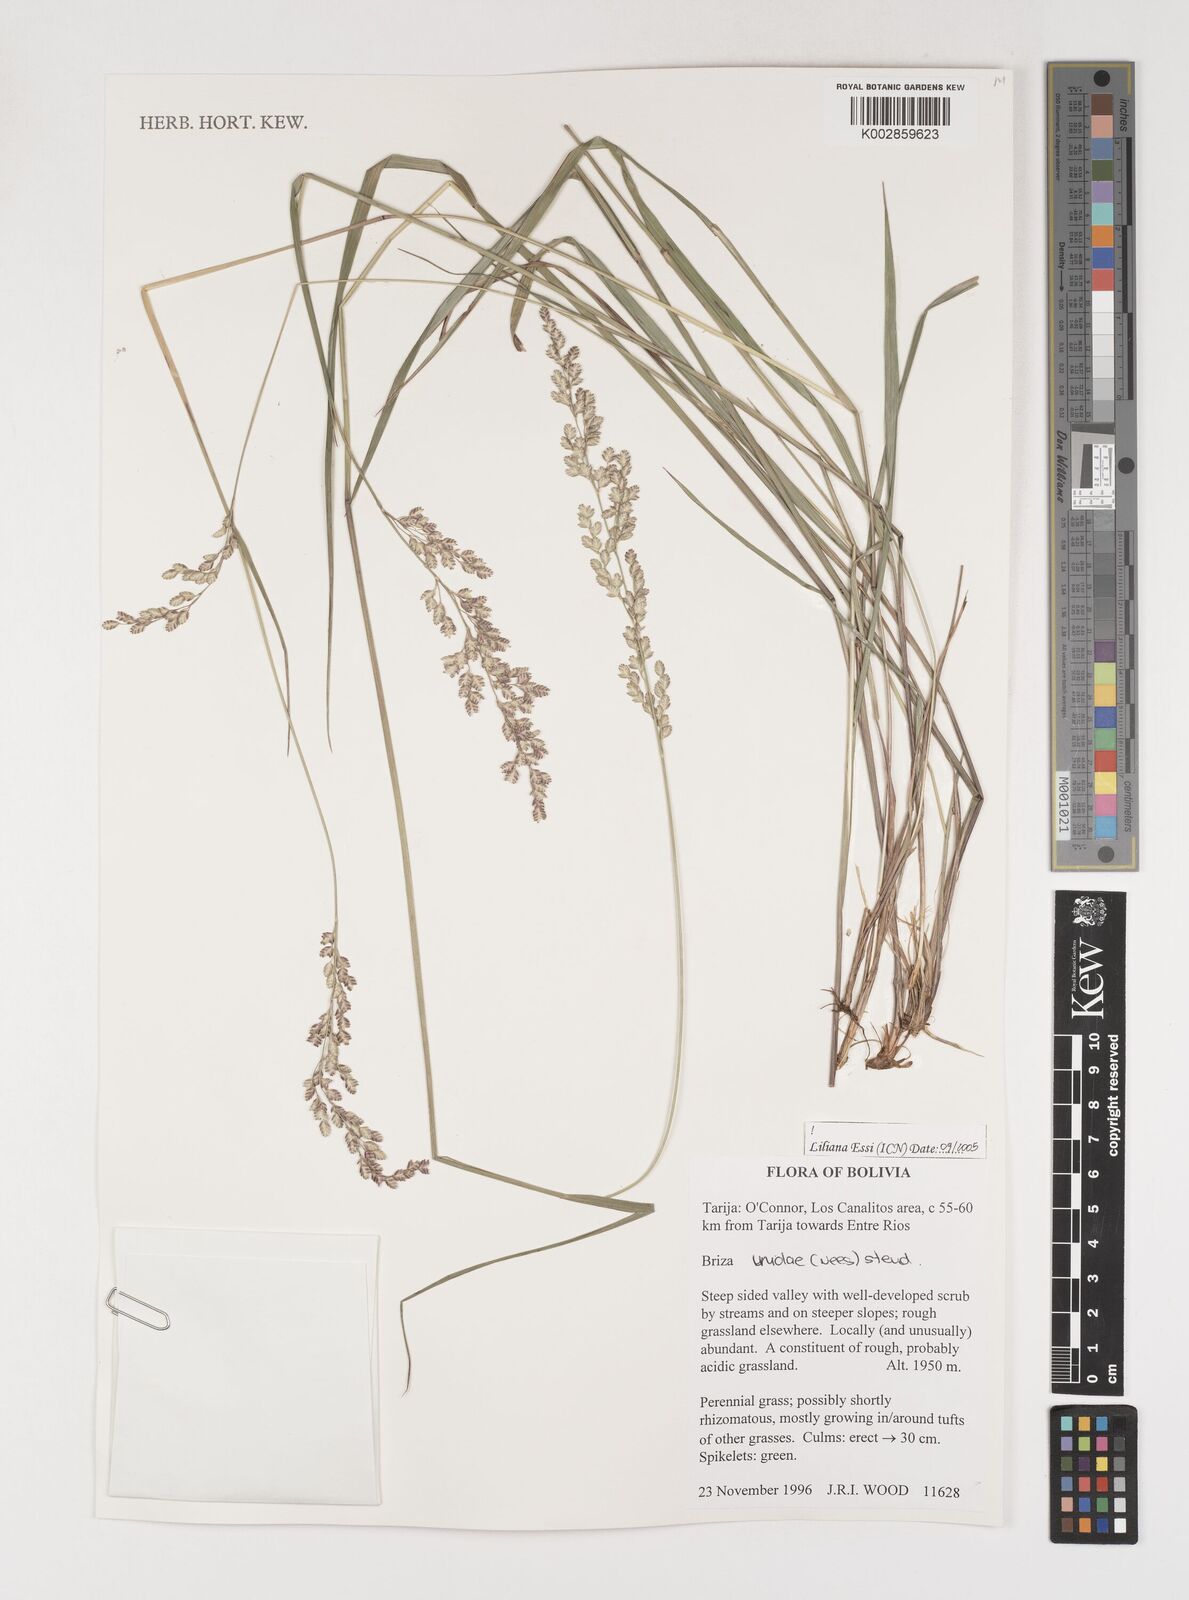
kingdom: Plantae
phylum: Tracheophyta
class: Liliopsida
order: Poales
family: Poaceae
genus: Poidium
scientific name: Poidium uniolae
